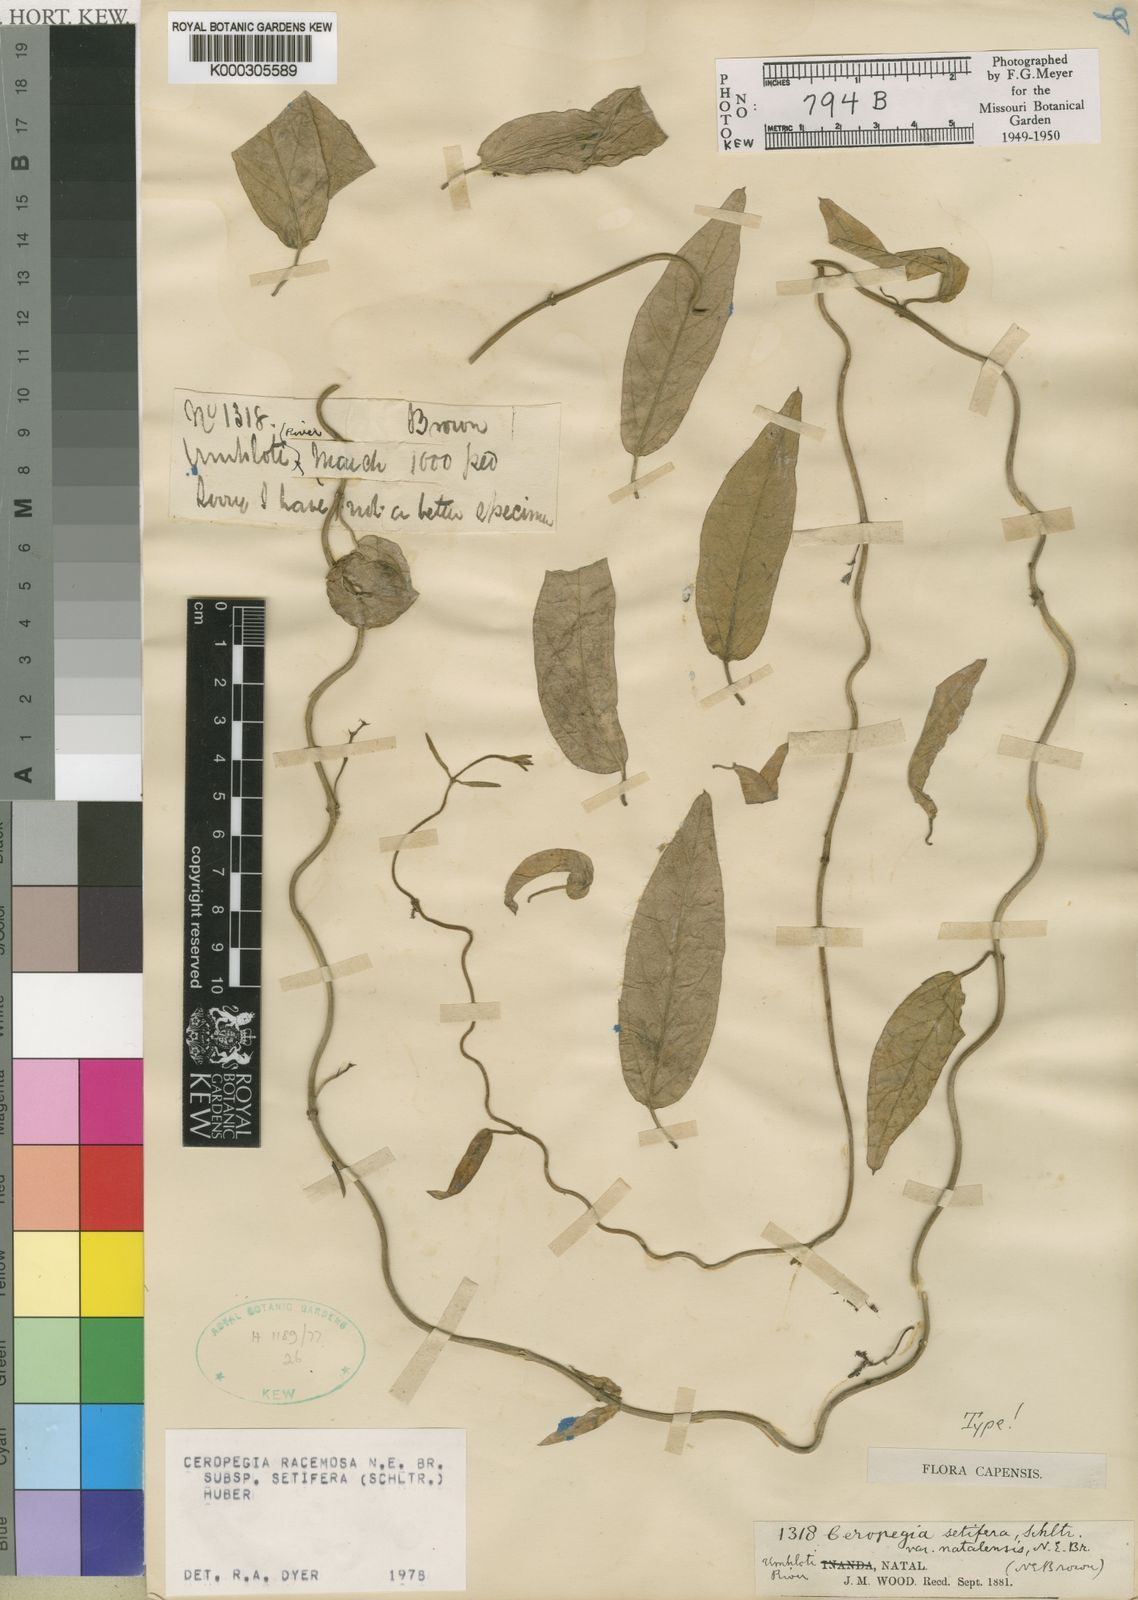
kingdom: Plantae
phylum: Tracheophyta
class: Magnoliopsida
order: Gentianales
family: Apocynaceae
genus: Ceropegia
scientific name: Ceropegia racemosa
